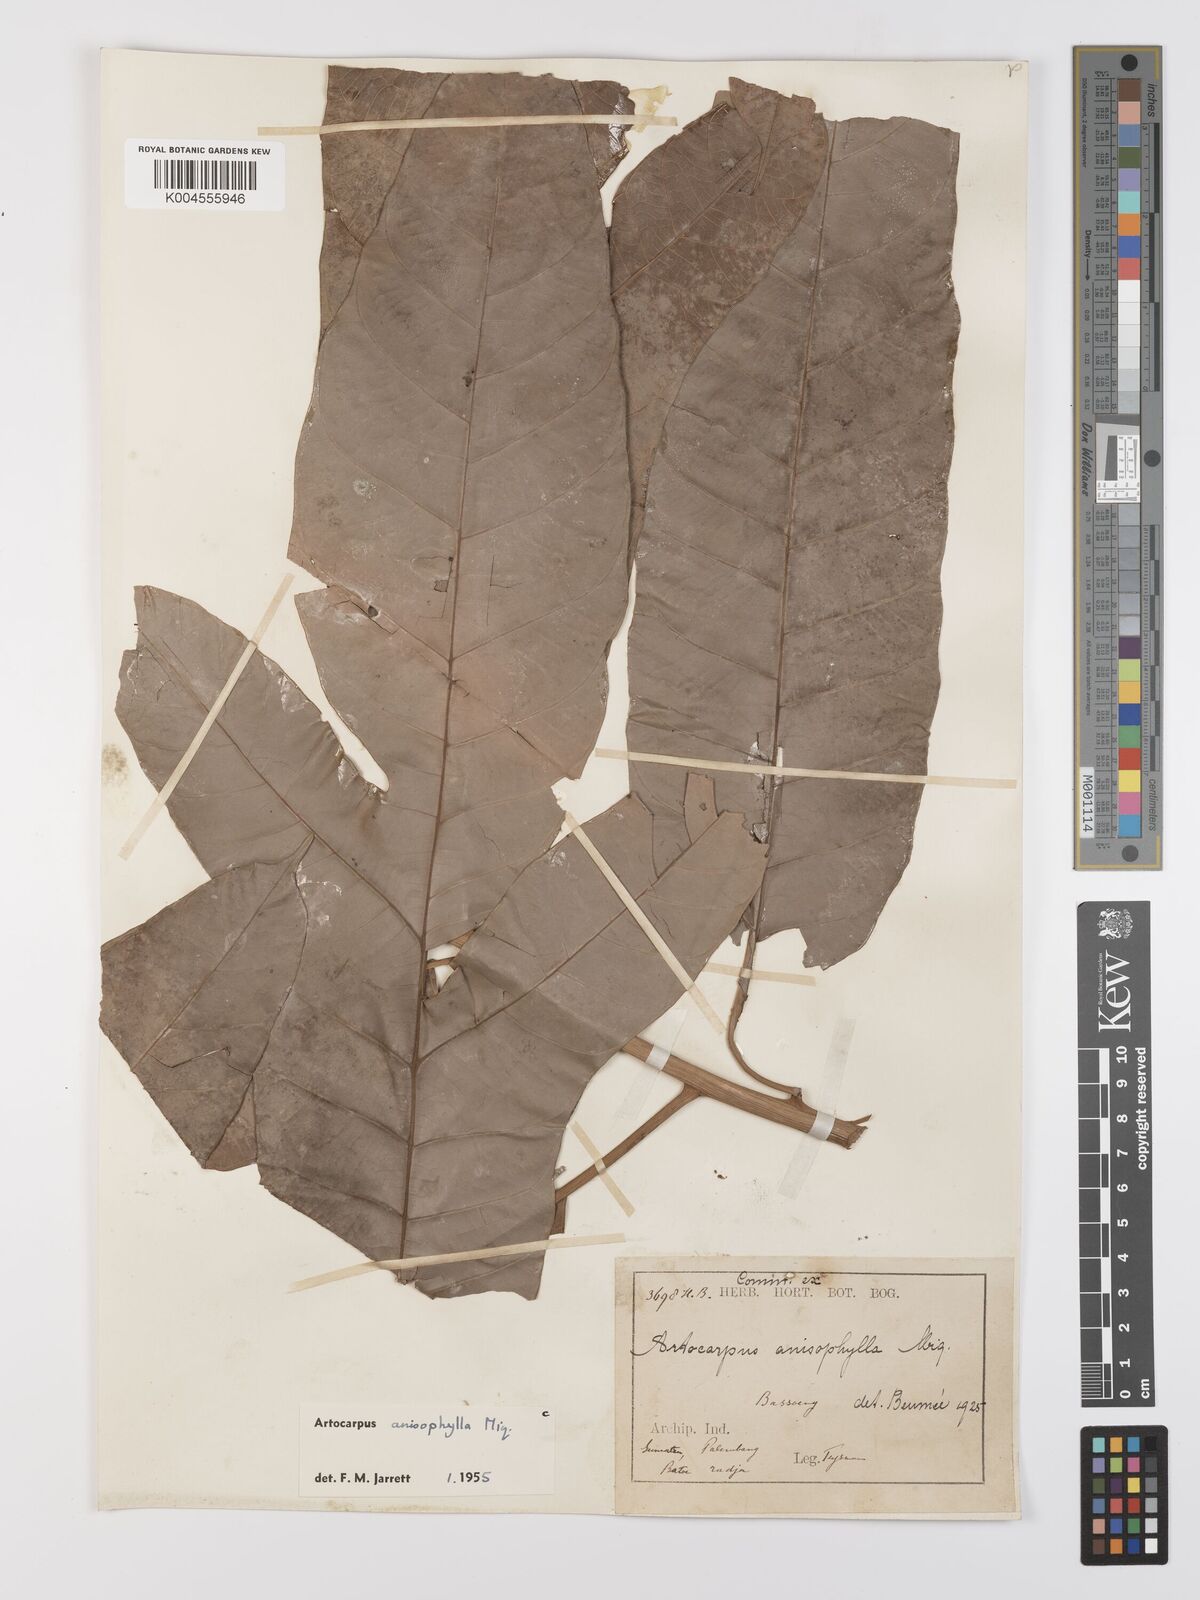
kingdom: Plantae
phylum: Tracheophyta
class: Magnoliopsida
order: Rosales
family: Moraceae
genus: Artocarpus
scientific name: Artocarpus anisophyllus
